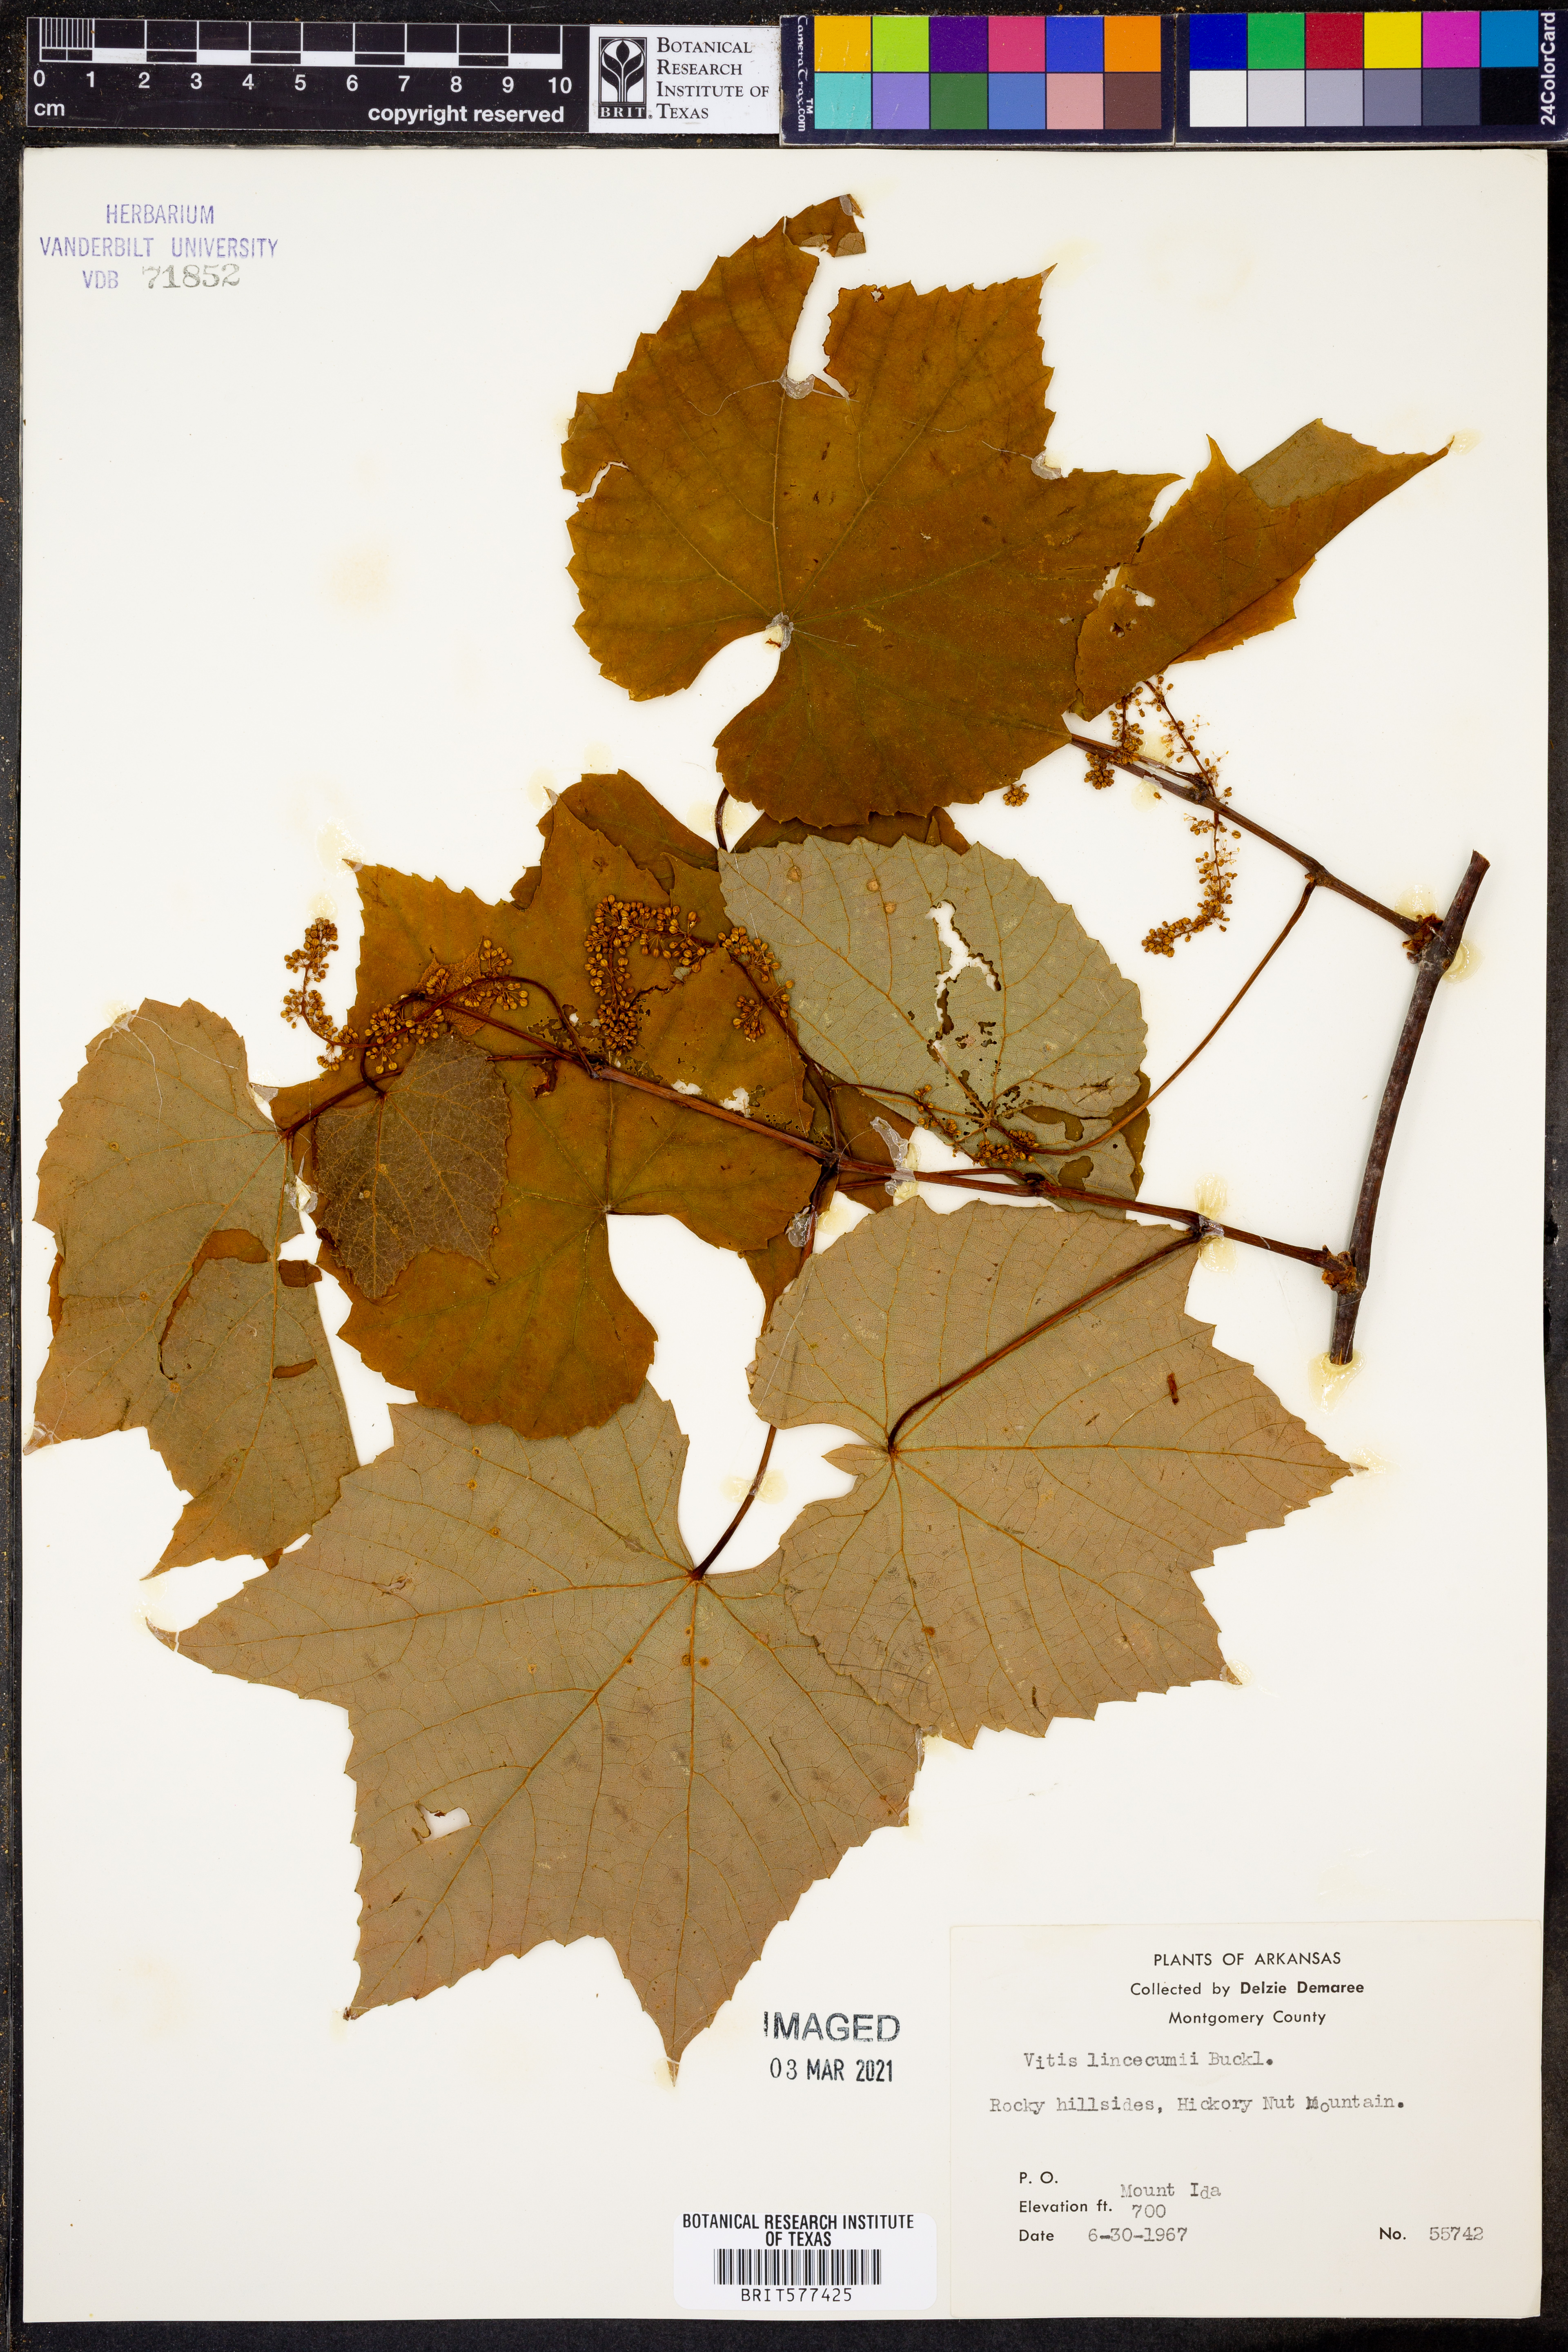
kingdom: Plantae
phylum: Tracheophyta
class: Magnoliopsida
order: Vitales
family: Vitaceae
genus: Vitis
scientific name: Vitis aestivalis
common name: Pigeon grape
